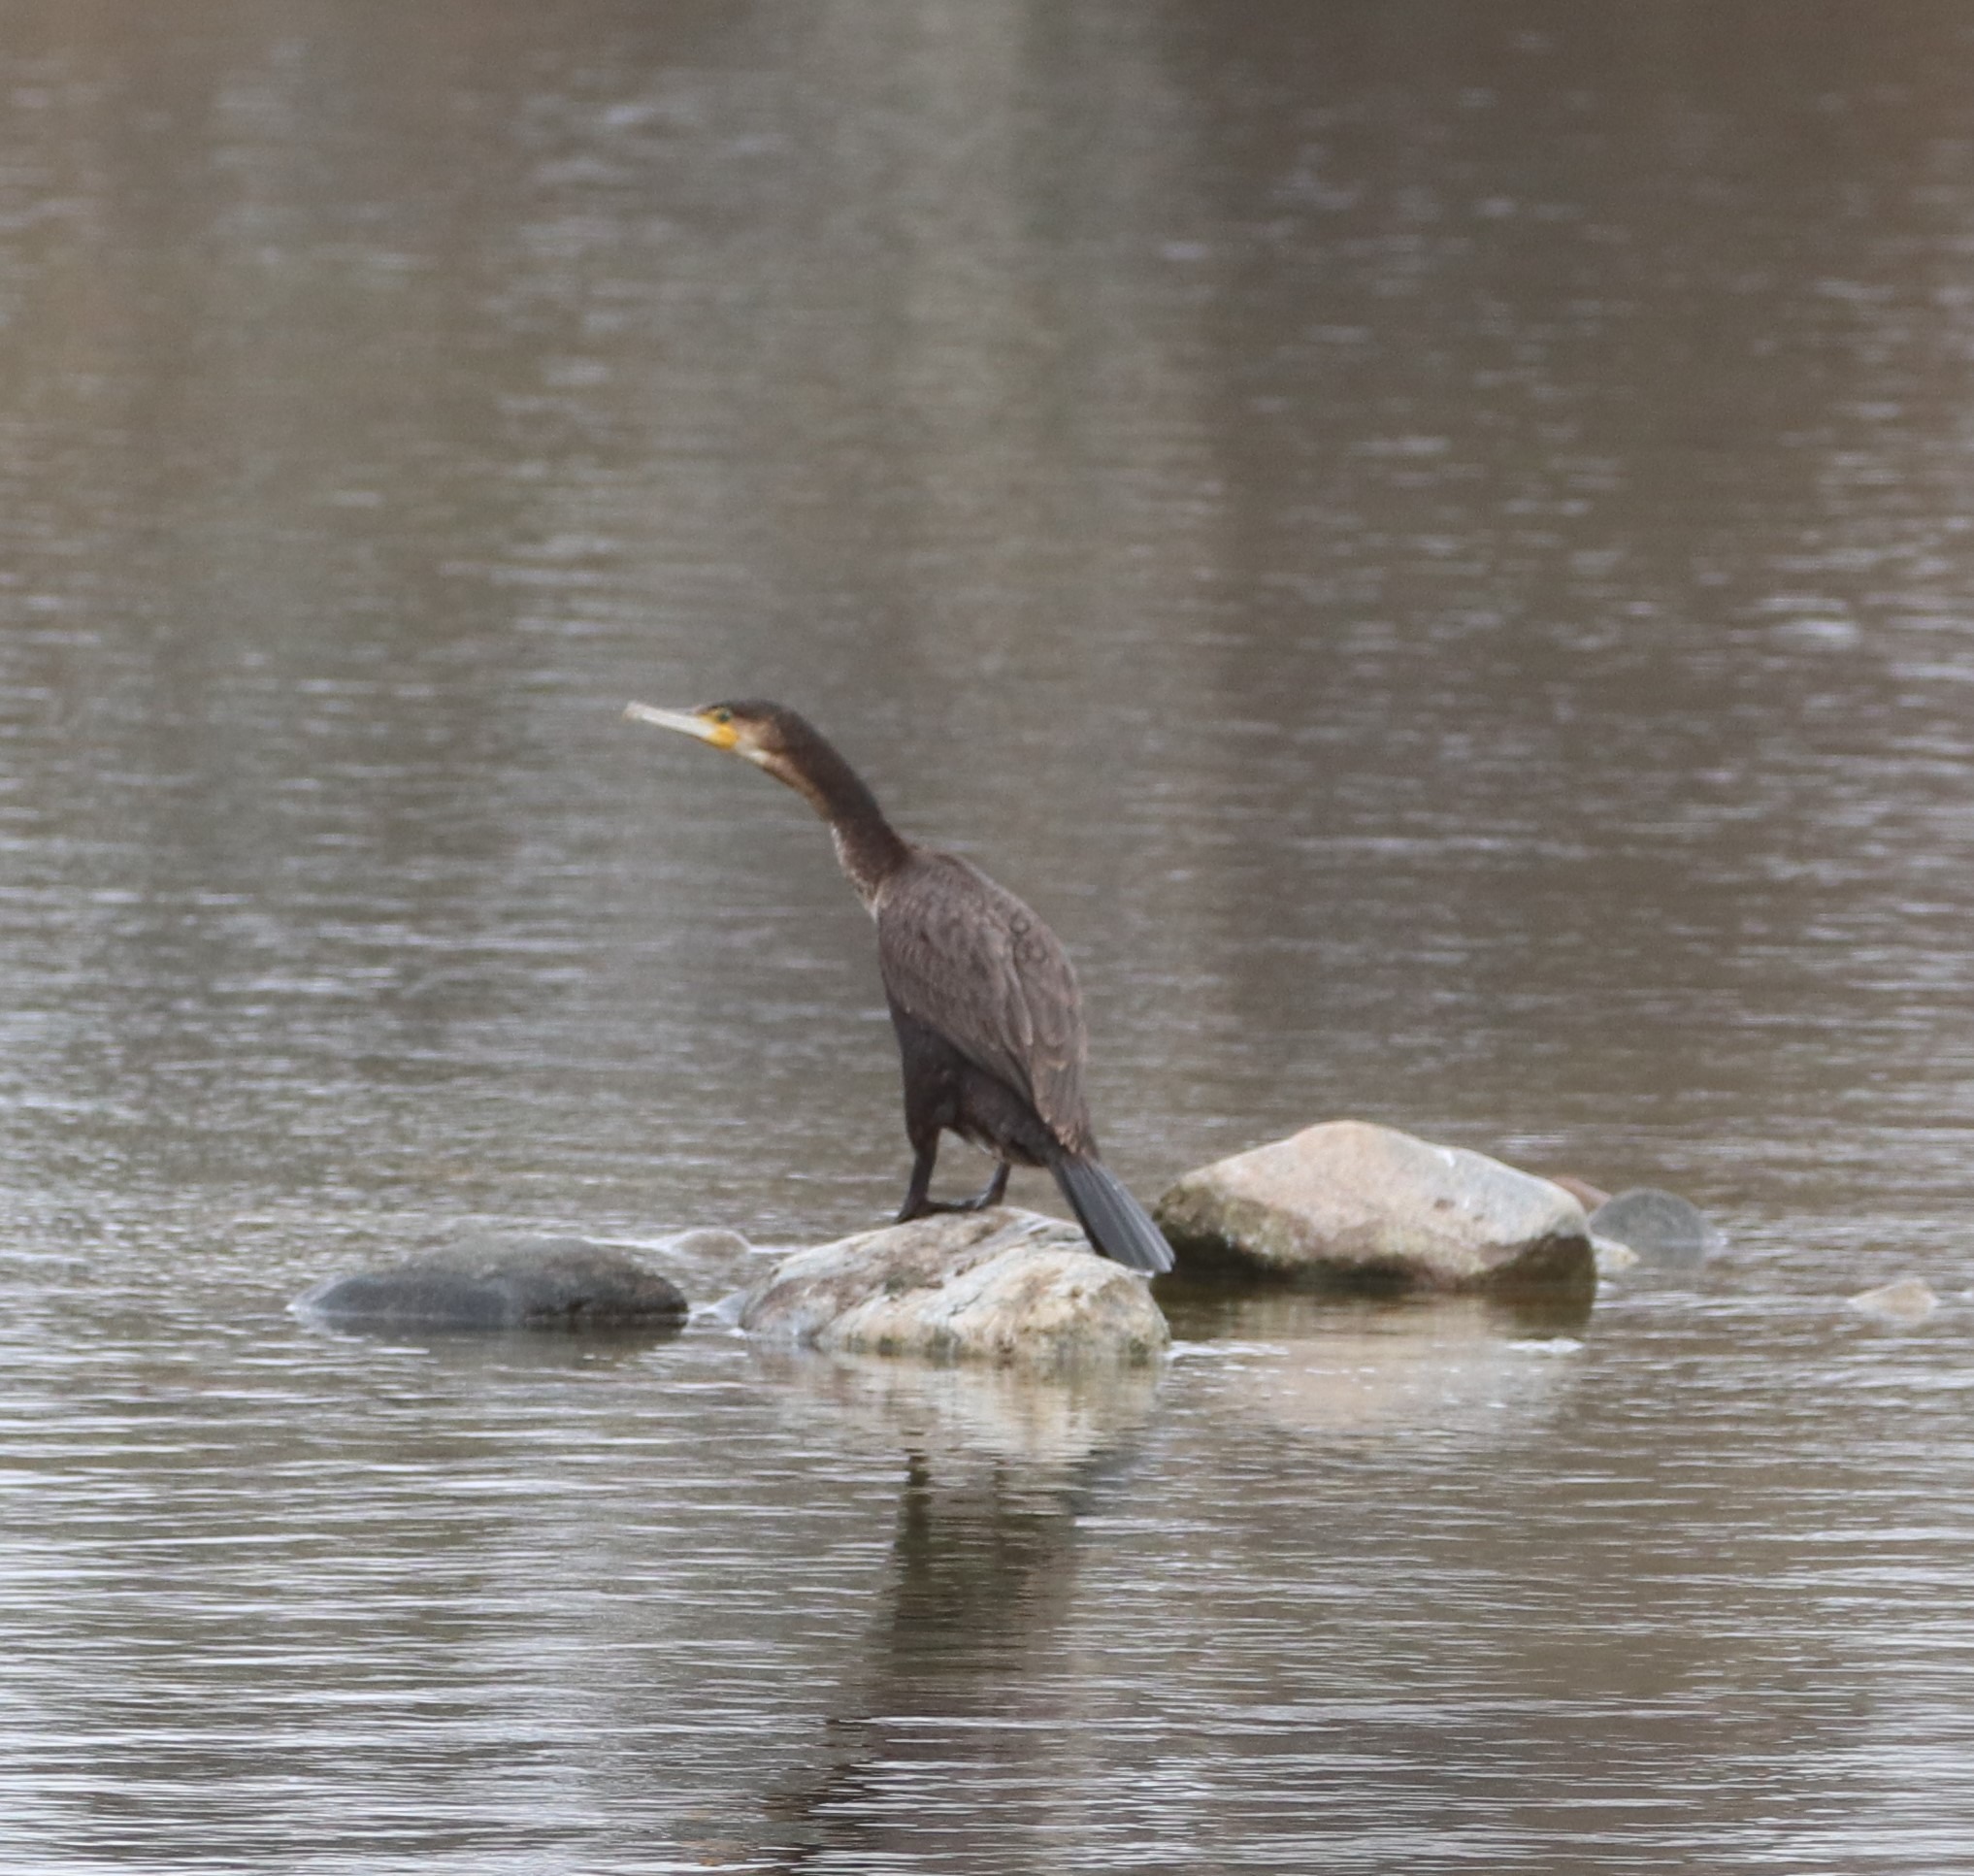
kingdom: Animalia
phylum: Chordata
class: Aves
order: Suliformes
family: Phalacrocoracidae
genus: Phalacrocorax
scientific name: Phalacrocorax carbo
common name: Skarv
